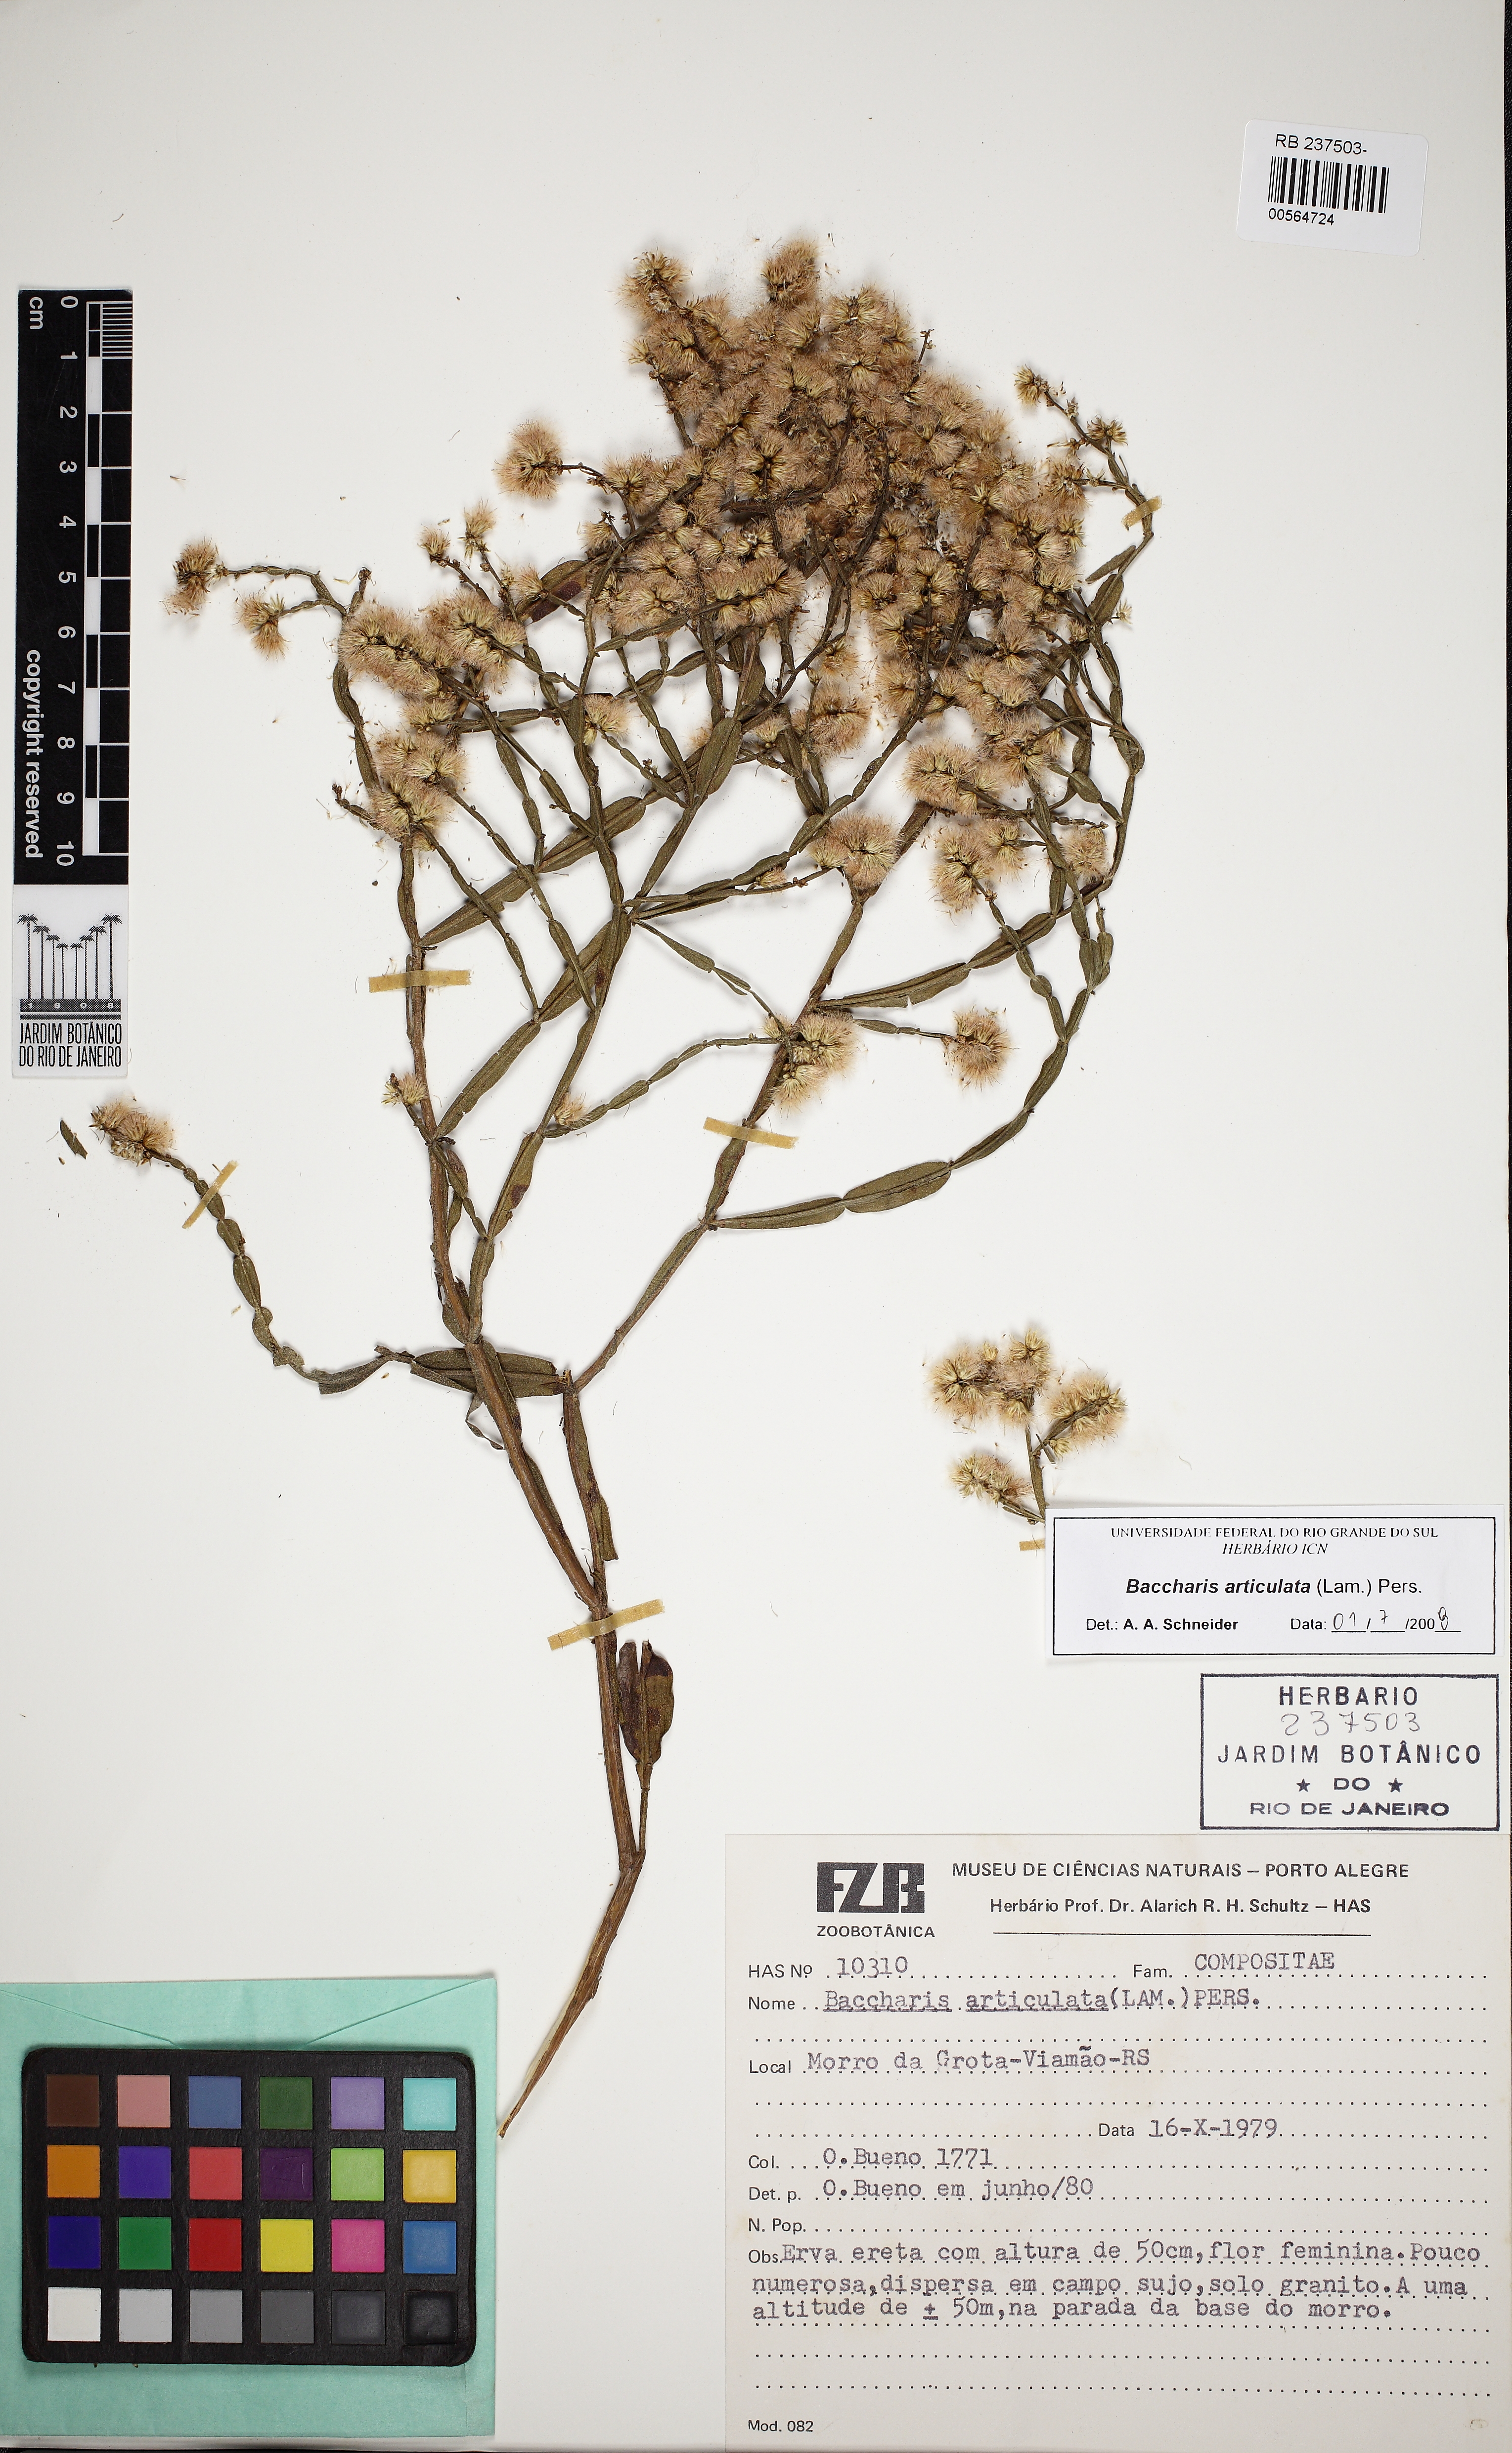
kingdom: Plantae
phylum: Tracheophyta
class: Magnoliopsida
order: Asterales
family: Asteraceae
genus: Baccharis
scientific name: Baccharis articulata
